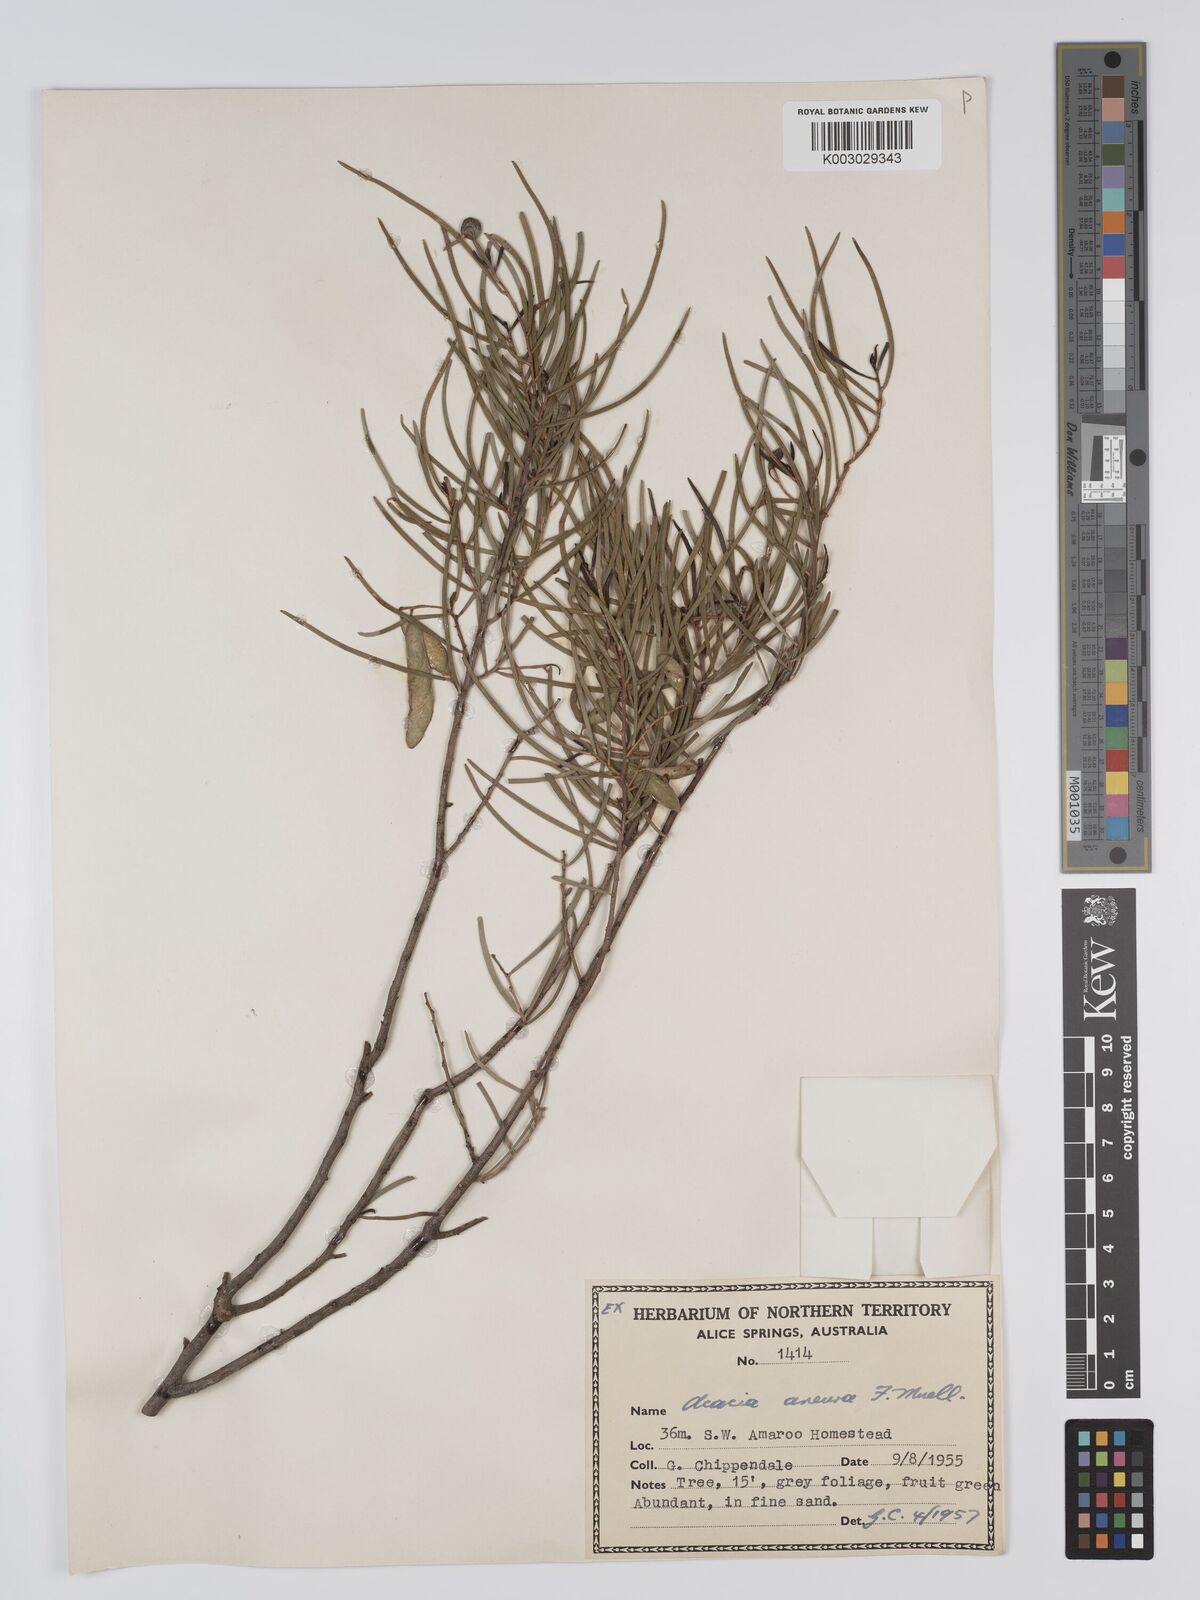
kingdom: Plantae
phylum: Tracheophyta
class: Magnoliopsida
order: Fabales
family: Fabaceae
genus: Acacia
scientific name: Acacia aneura
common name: Mulga
